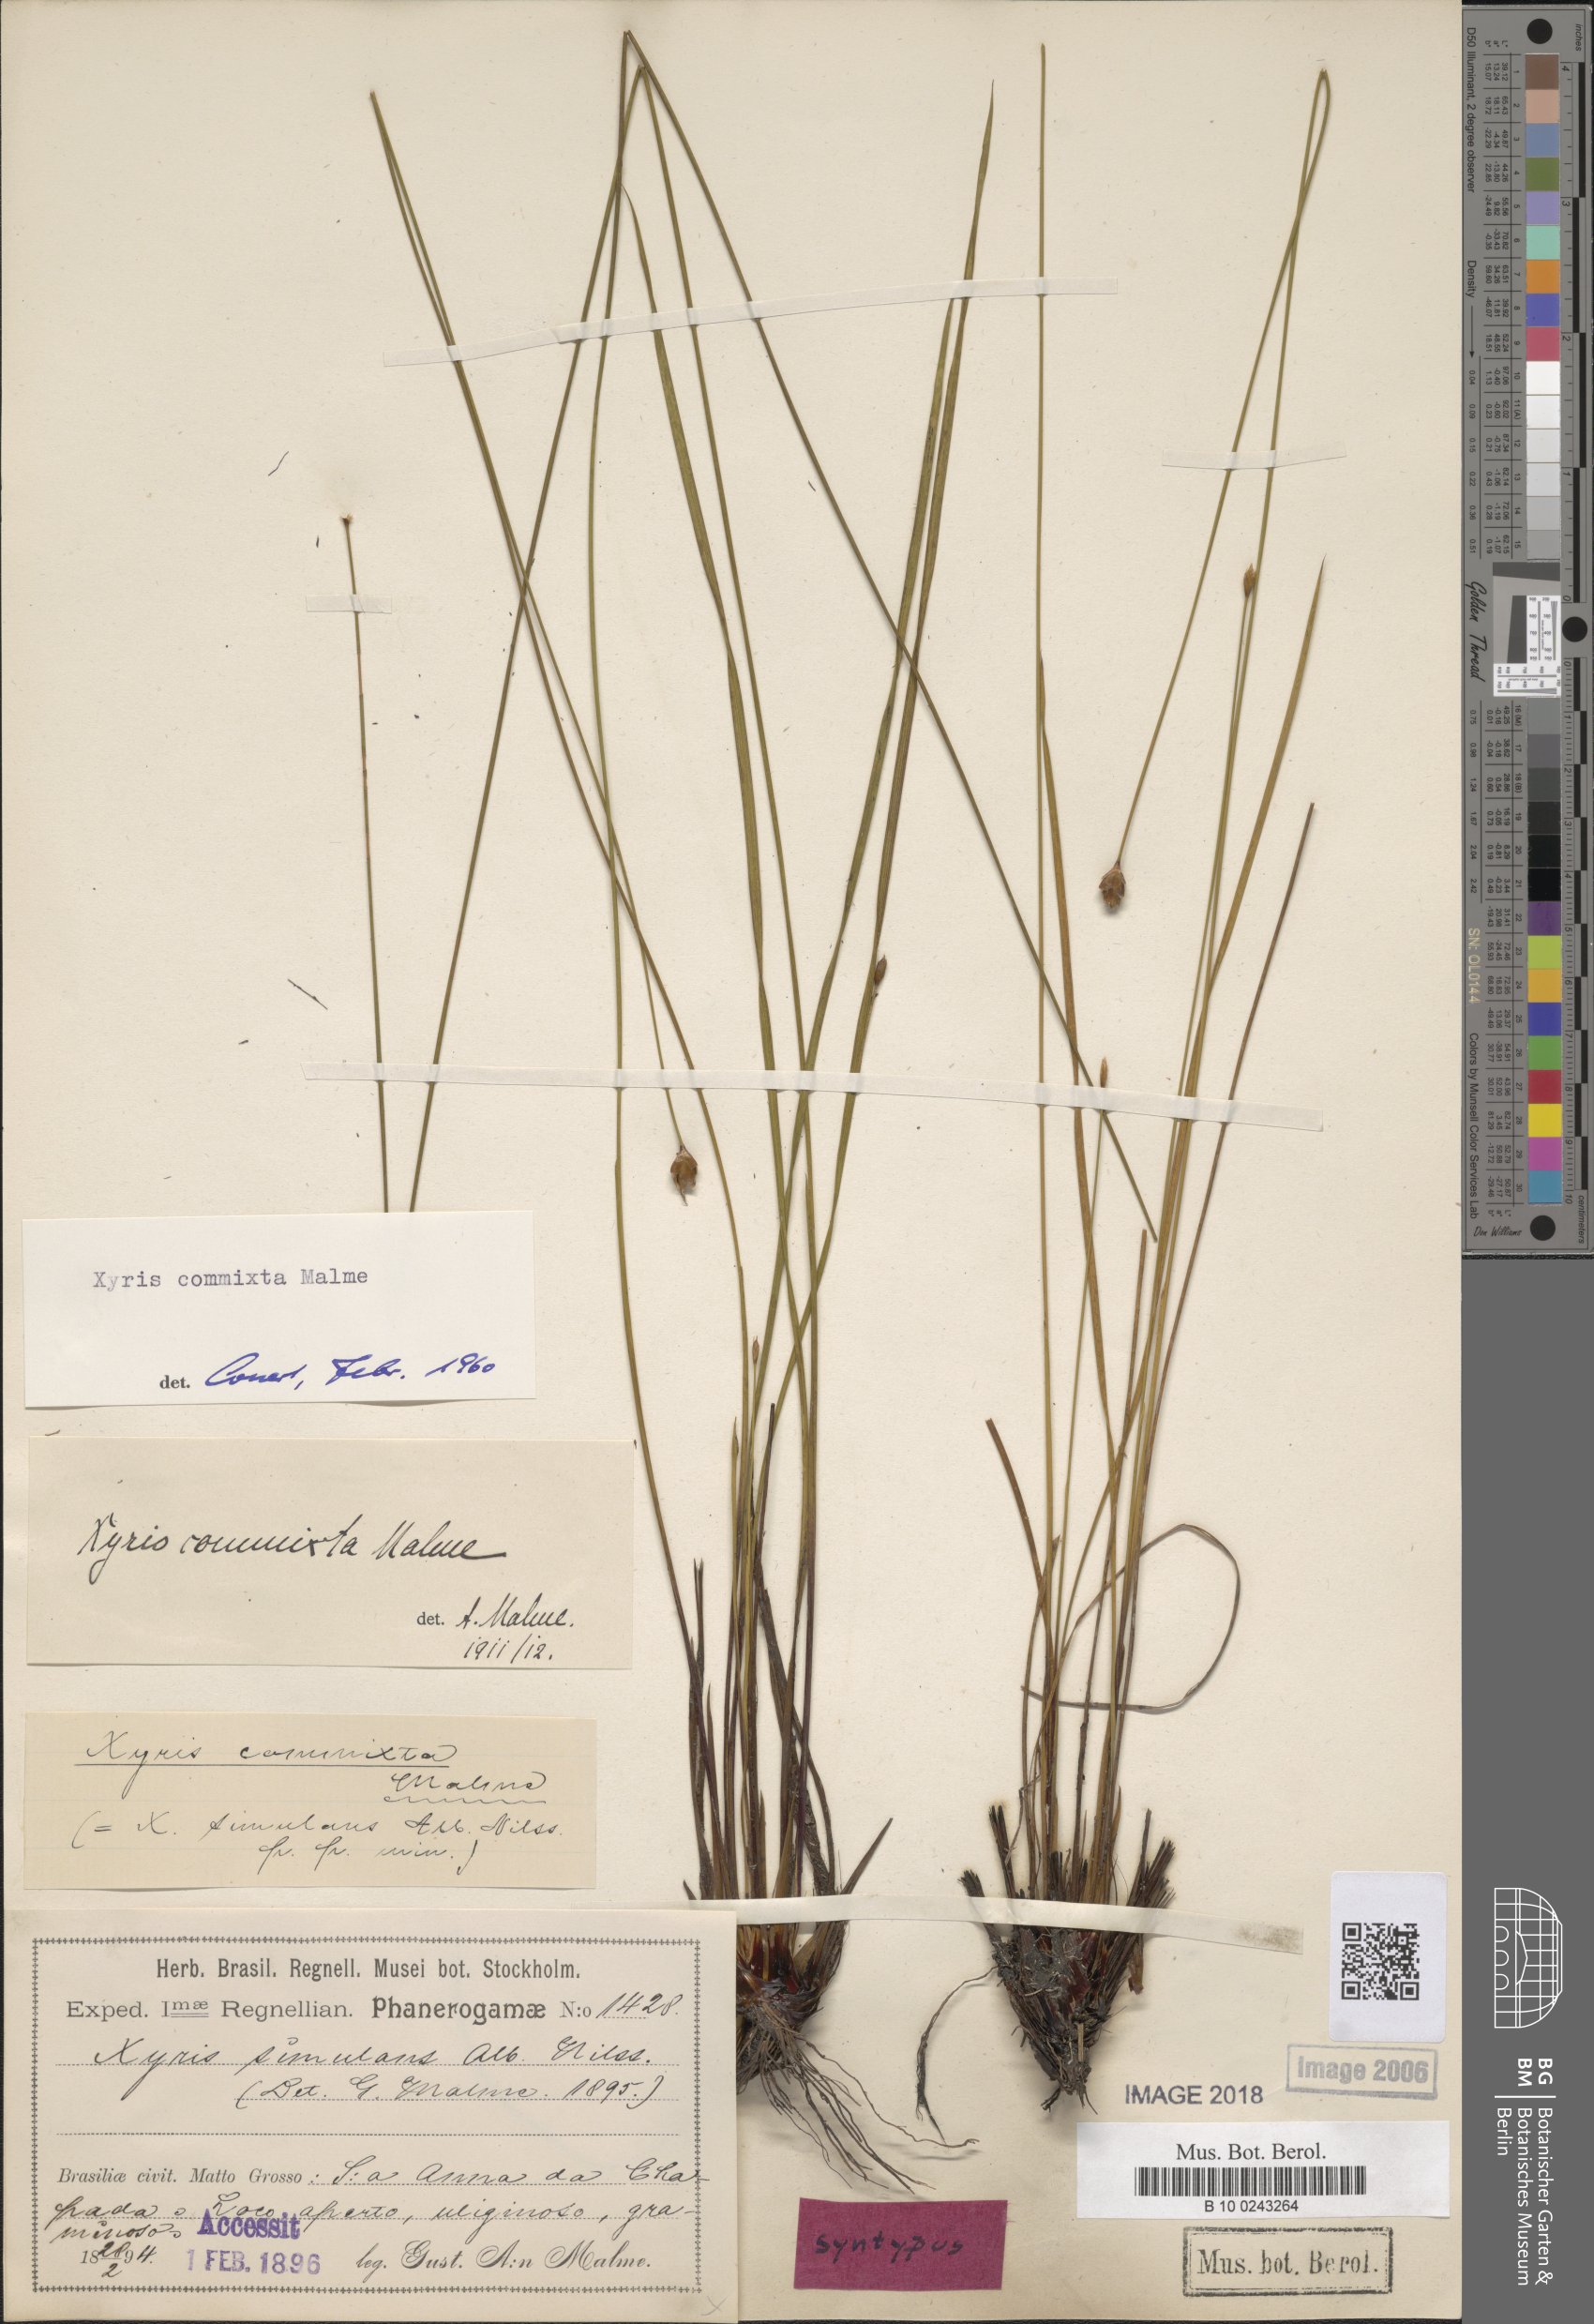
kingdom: Plantae
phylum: Tracheophyta
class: Liliopsida
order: Poales
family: Xyridaceae
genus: Xyris
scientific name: Xyris tortula
